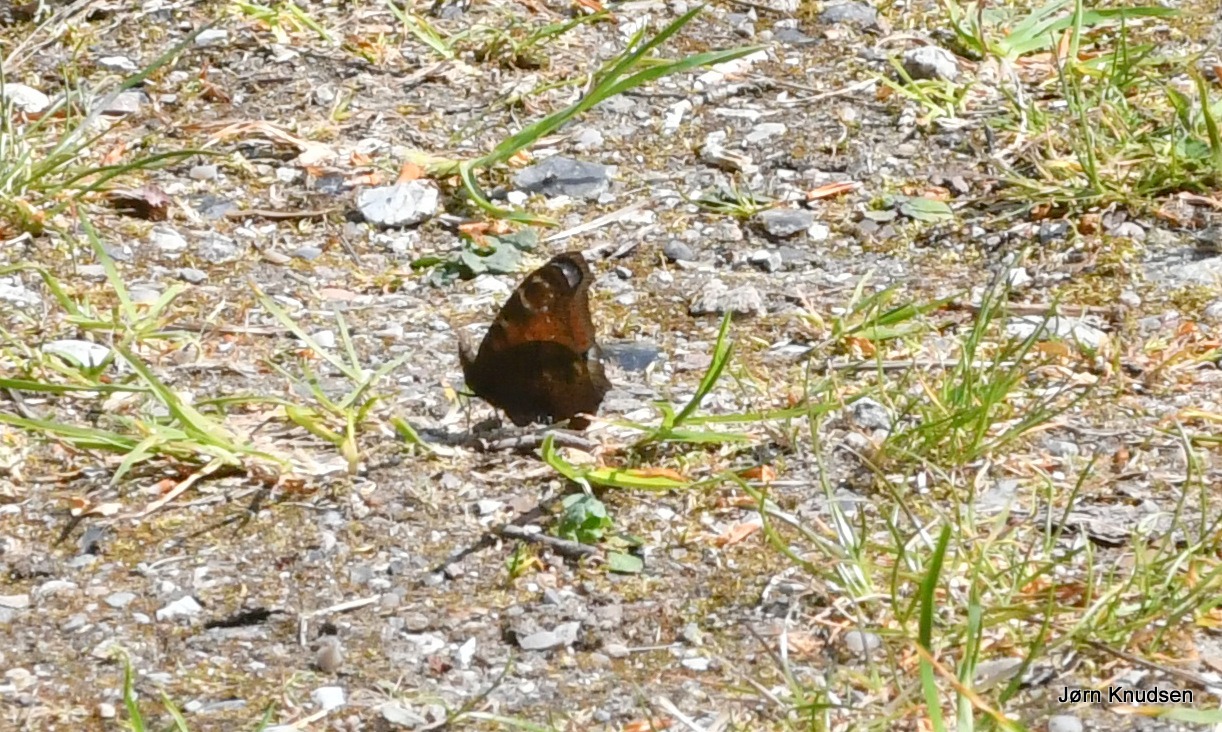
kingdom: Animalia
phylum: Arthropoda
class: Insecta
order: Lepidoptera
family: Nymphalidae
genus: Aglais
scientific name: Aglais io
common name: Dagpåfugleøje
